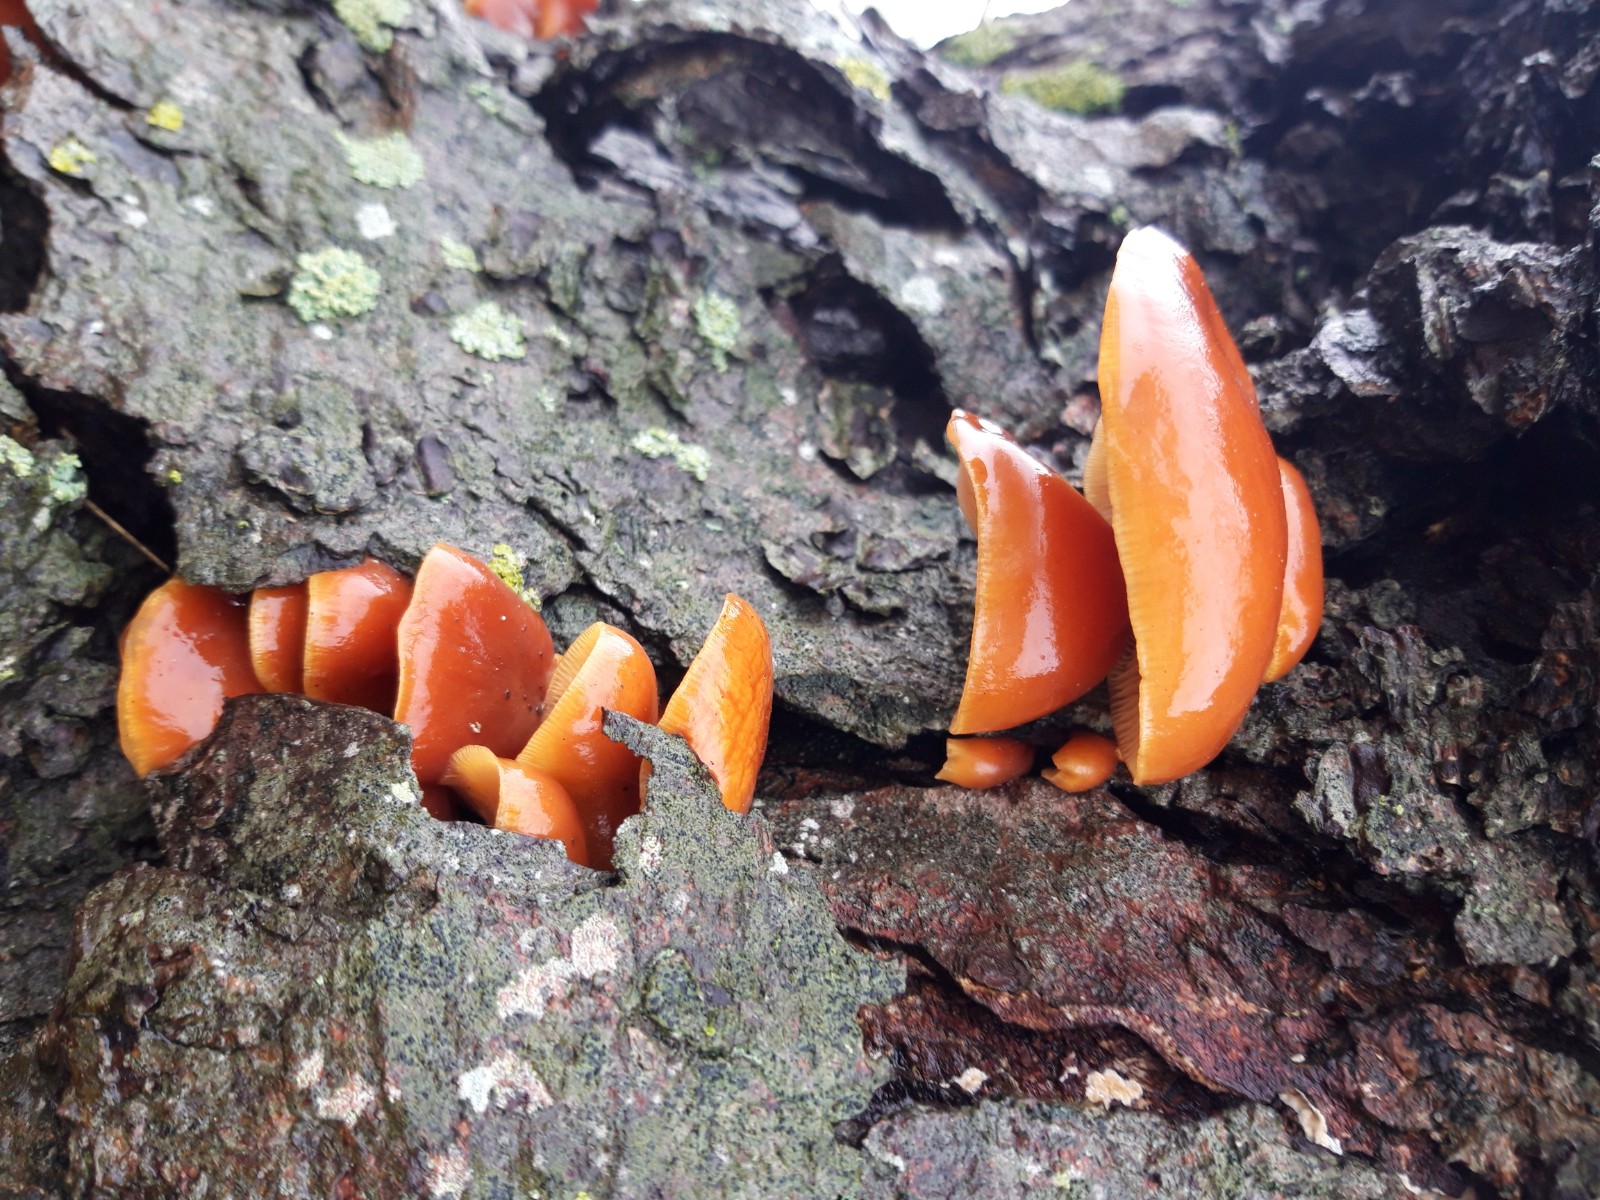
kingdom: Fungi
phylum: Basidiomycota
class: Agaricomycetes
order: Agaricales
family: Physalacriaceae
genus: Flammulina
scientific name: Flammulina velutipes
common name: gul fløjlsfod
